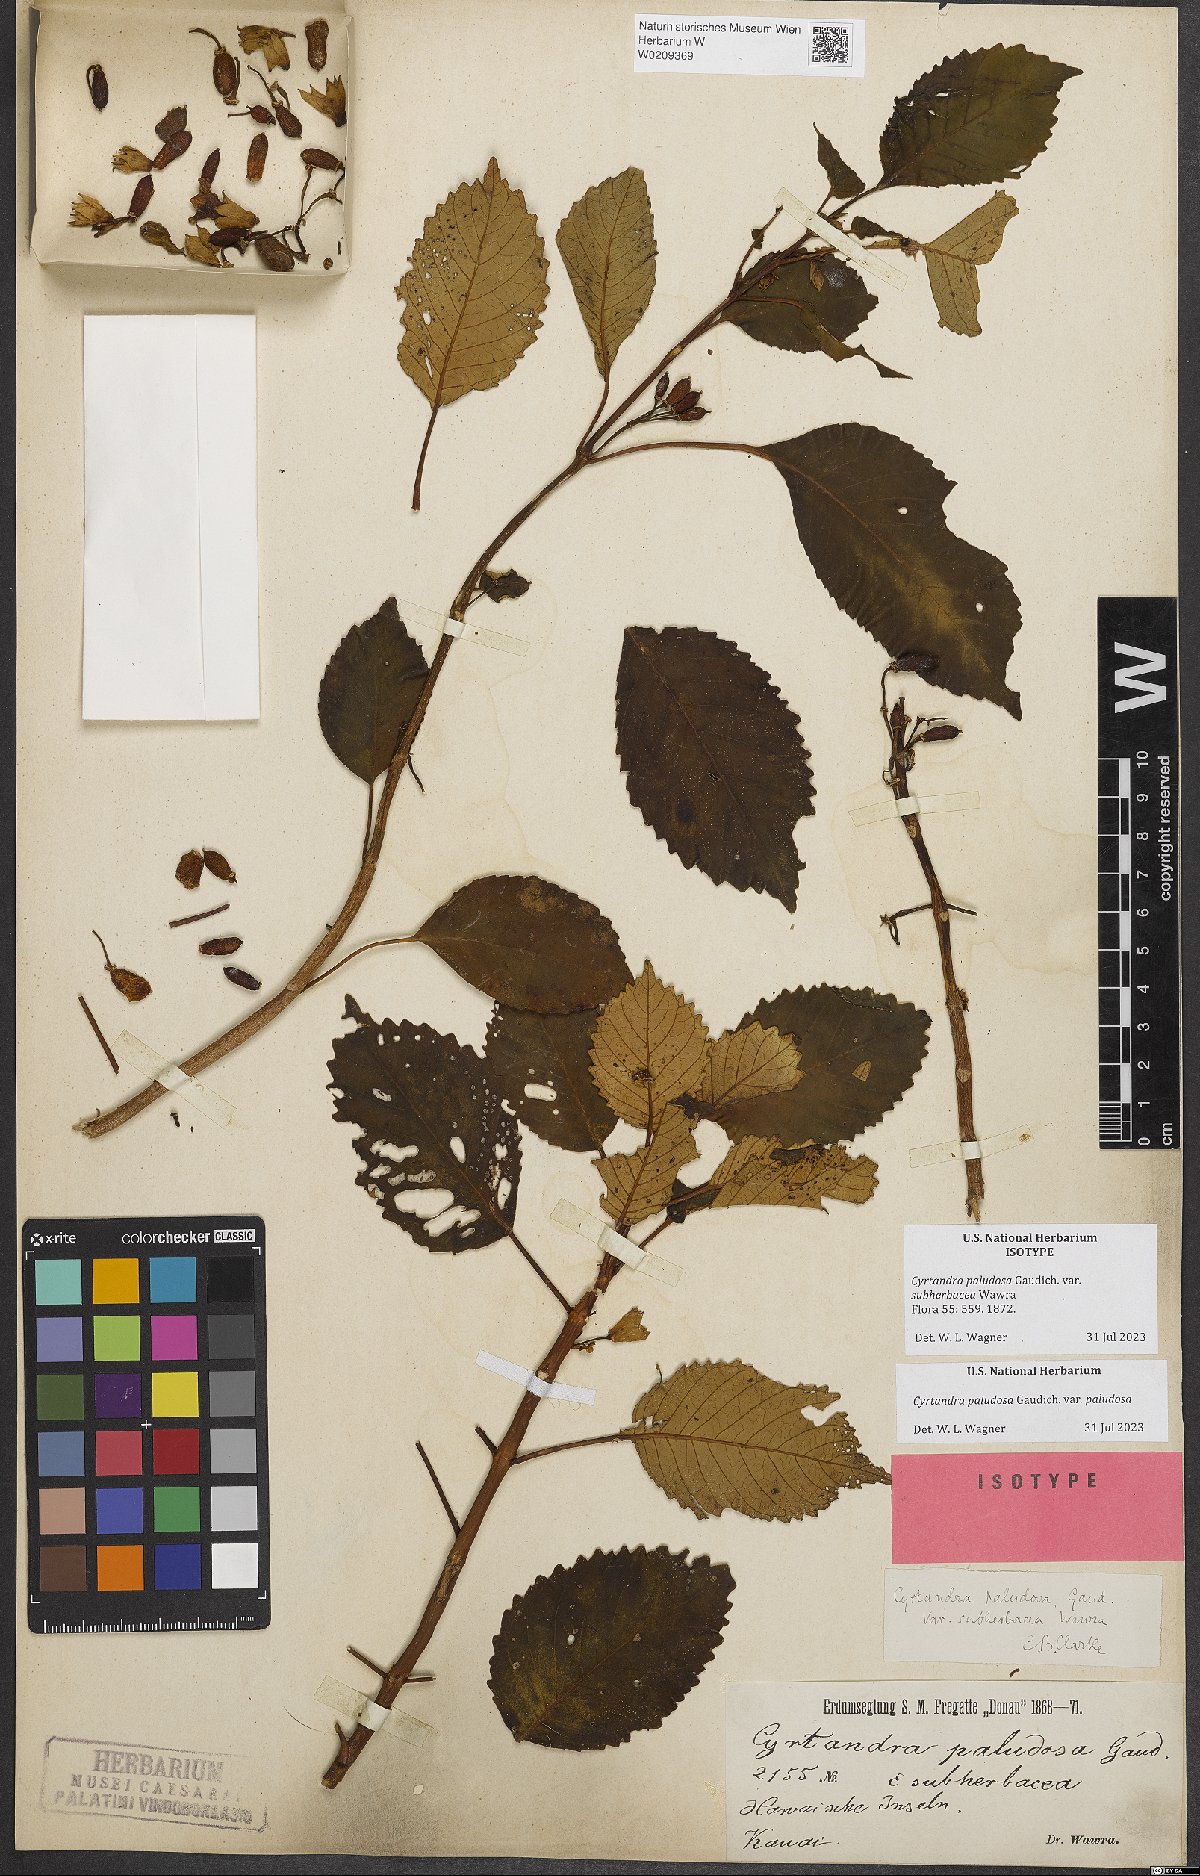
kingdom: Plantae
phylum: Tracheophyta
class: Magnoliopsida
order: Lamiales
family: Gesneriaceae
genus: Cyrtandra
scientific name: Cyrtandra paludosa
